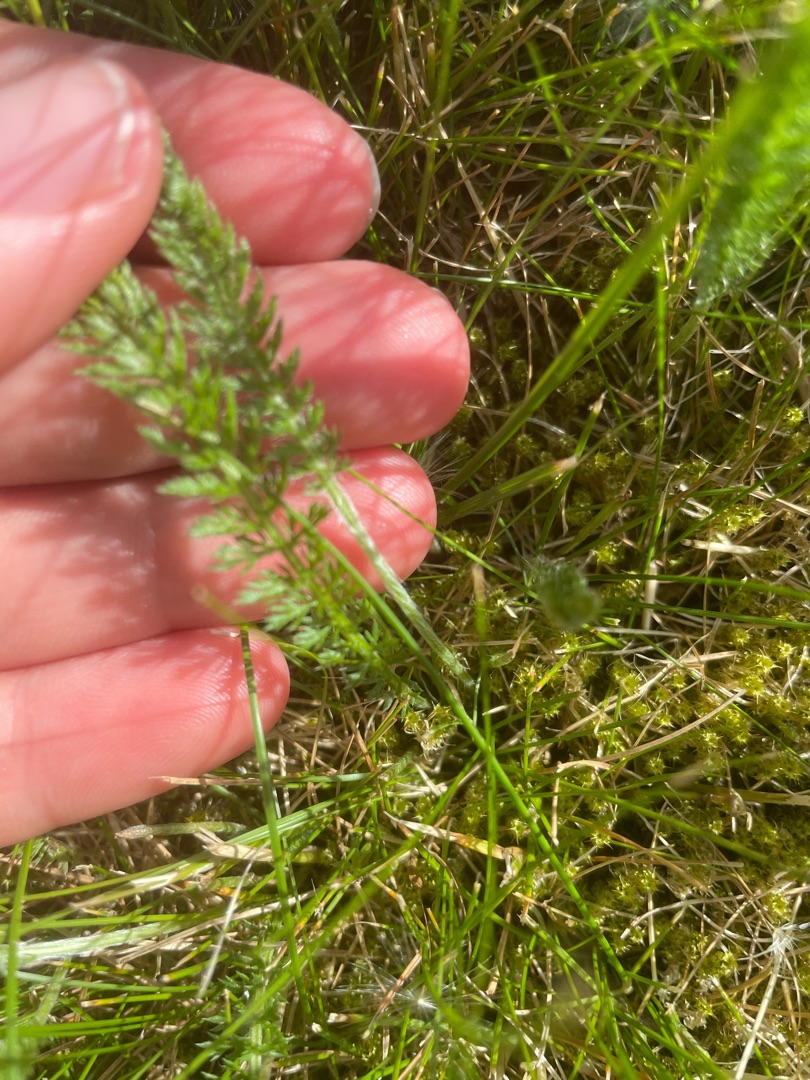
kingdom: Plantae
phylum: Tracheophyta
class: Magnoliopsida
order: Asterales
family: Asteraceae
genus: Achillea
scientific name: Achillea millefolium
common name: Almindelig røllike
